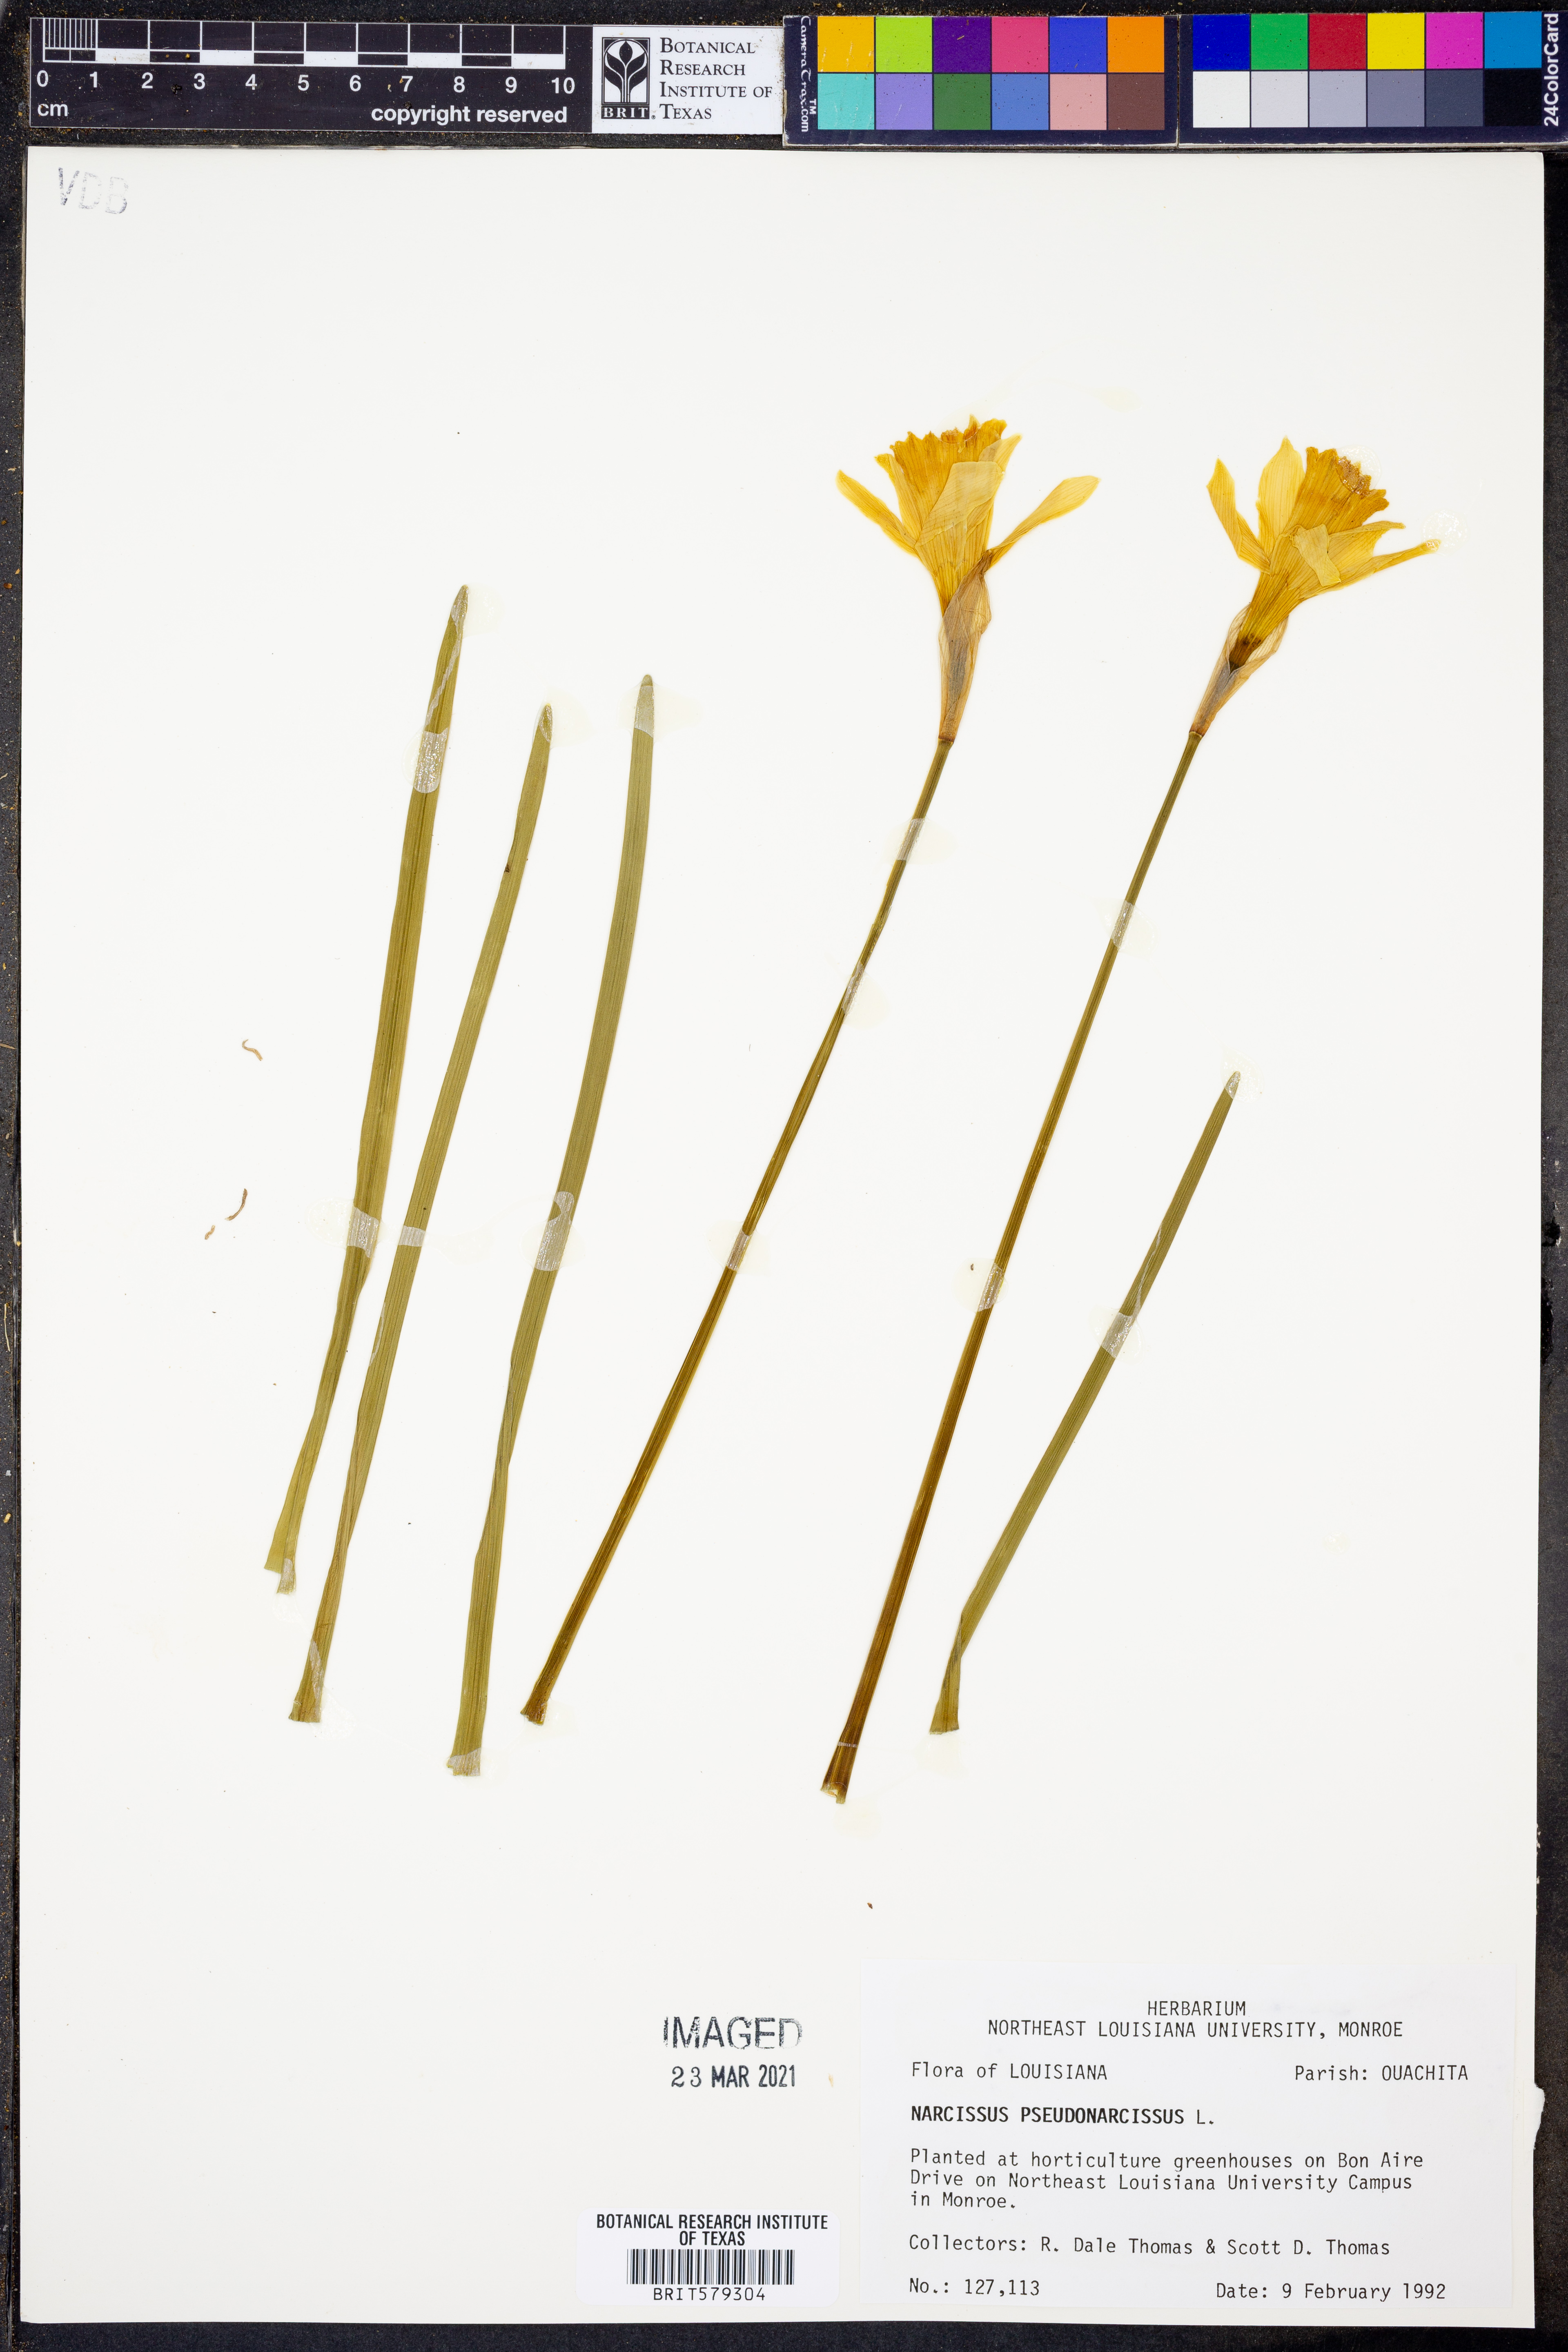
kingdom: Plantae
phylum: Tracheophyta
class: Liliopsida
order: Asparagales
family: Amaryllidaceae
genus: Narcissus
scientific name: Narcissus pseudonarcissus
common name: Daffodil
